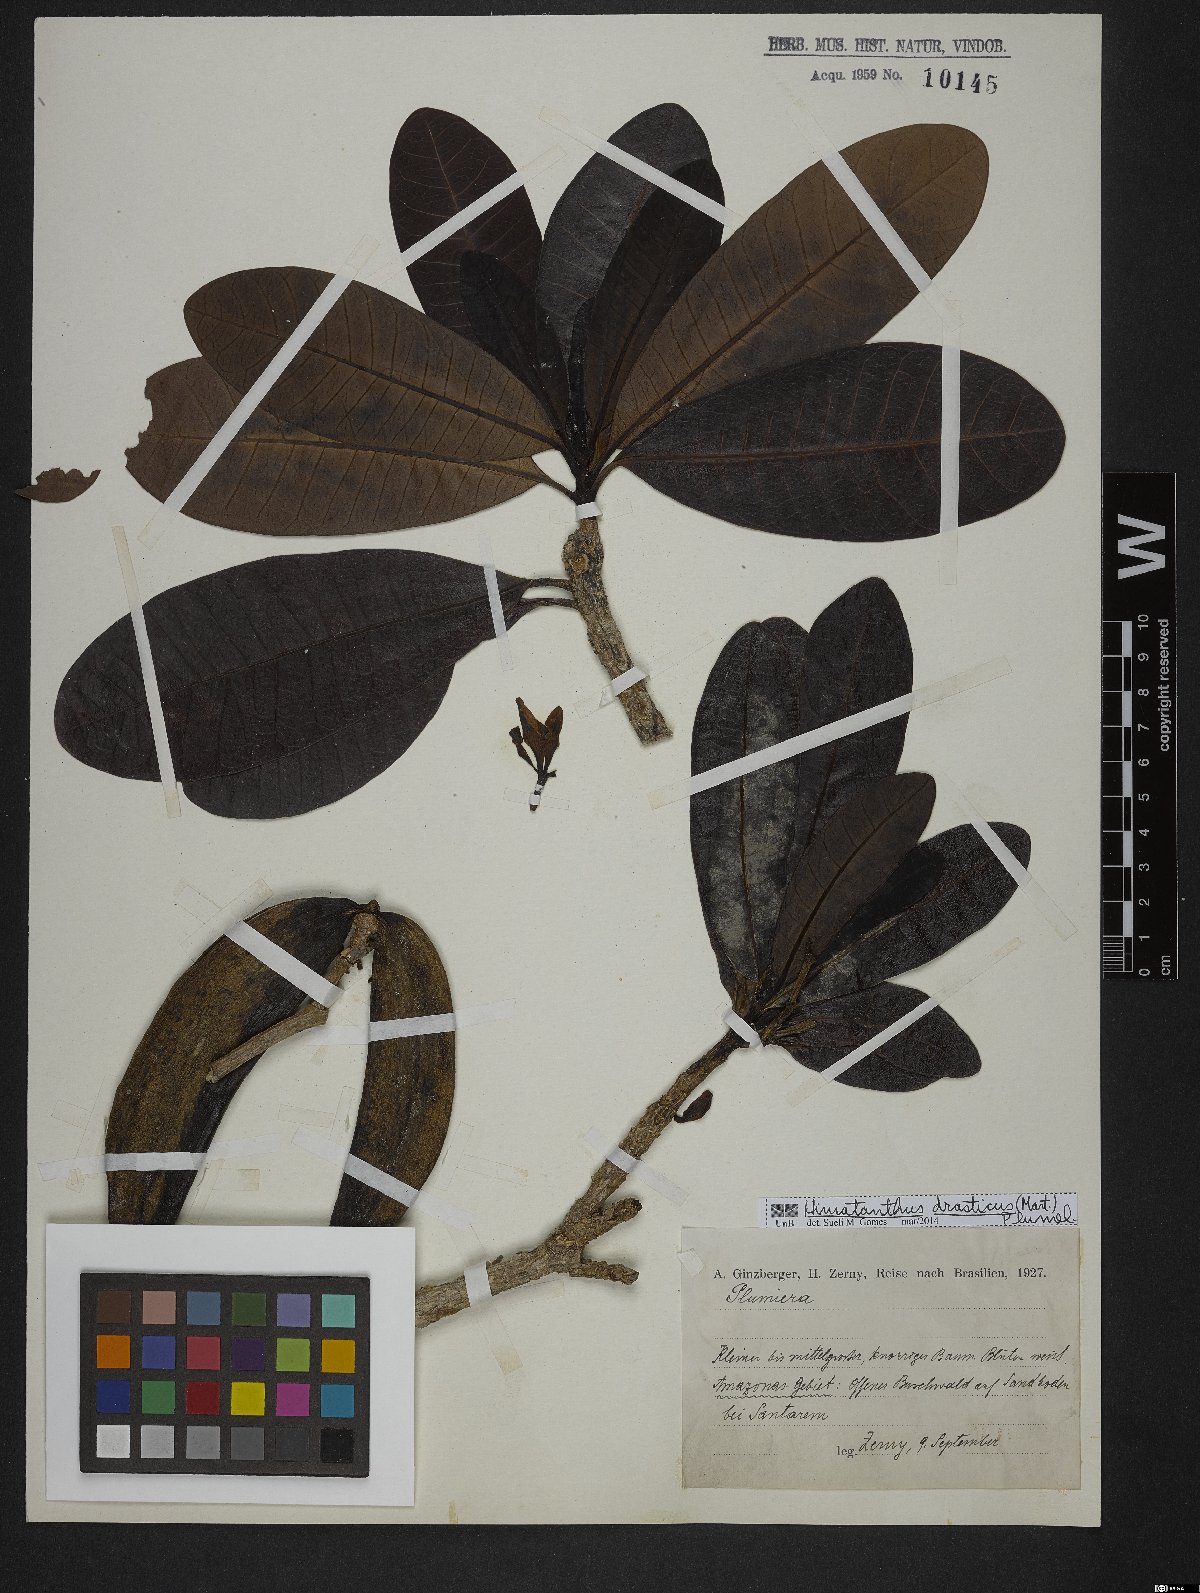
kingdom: Plantae
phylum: Tracheophyta
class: Magnoliopsida
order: Gentianales
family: Apocynaceae
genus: Himatanthus
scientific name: Himatanthus drasticus
